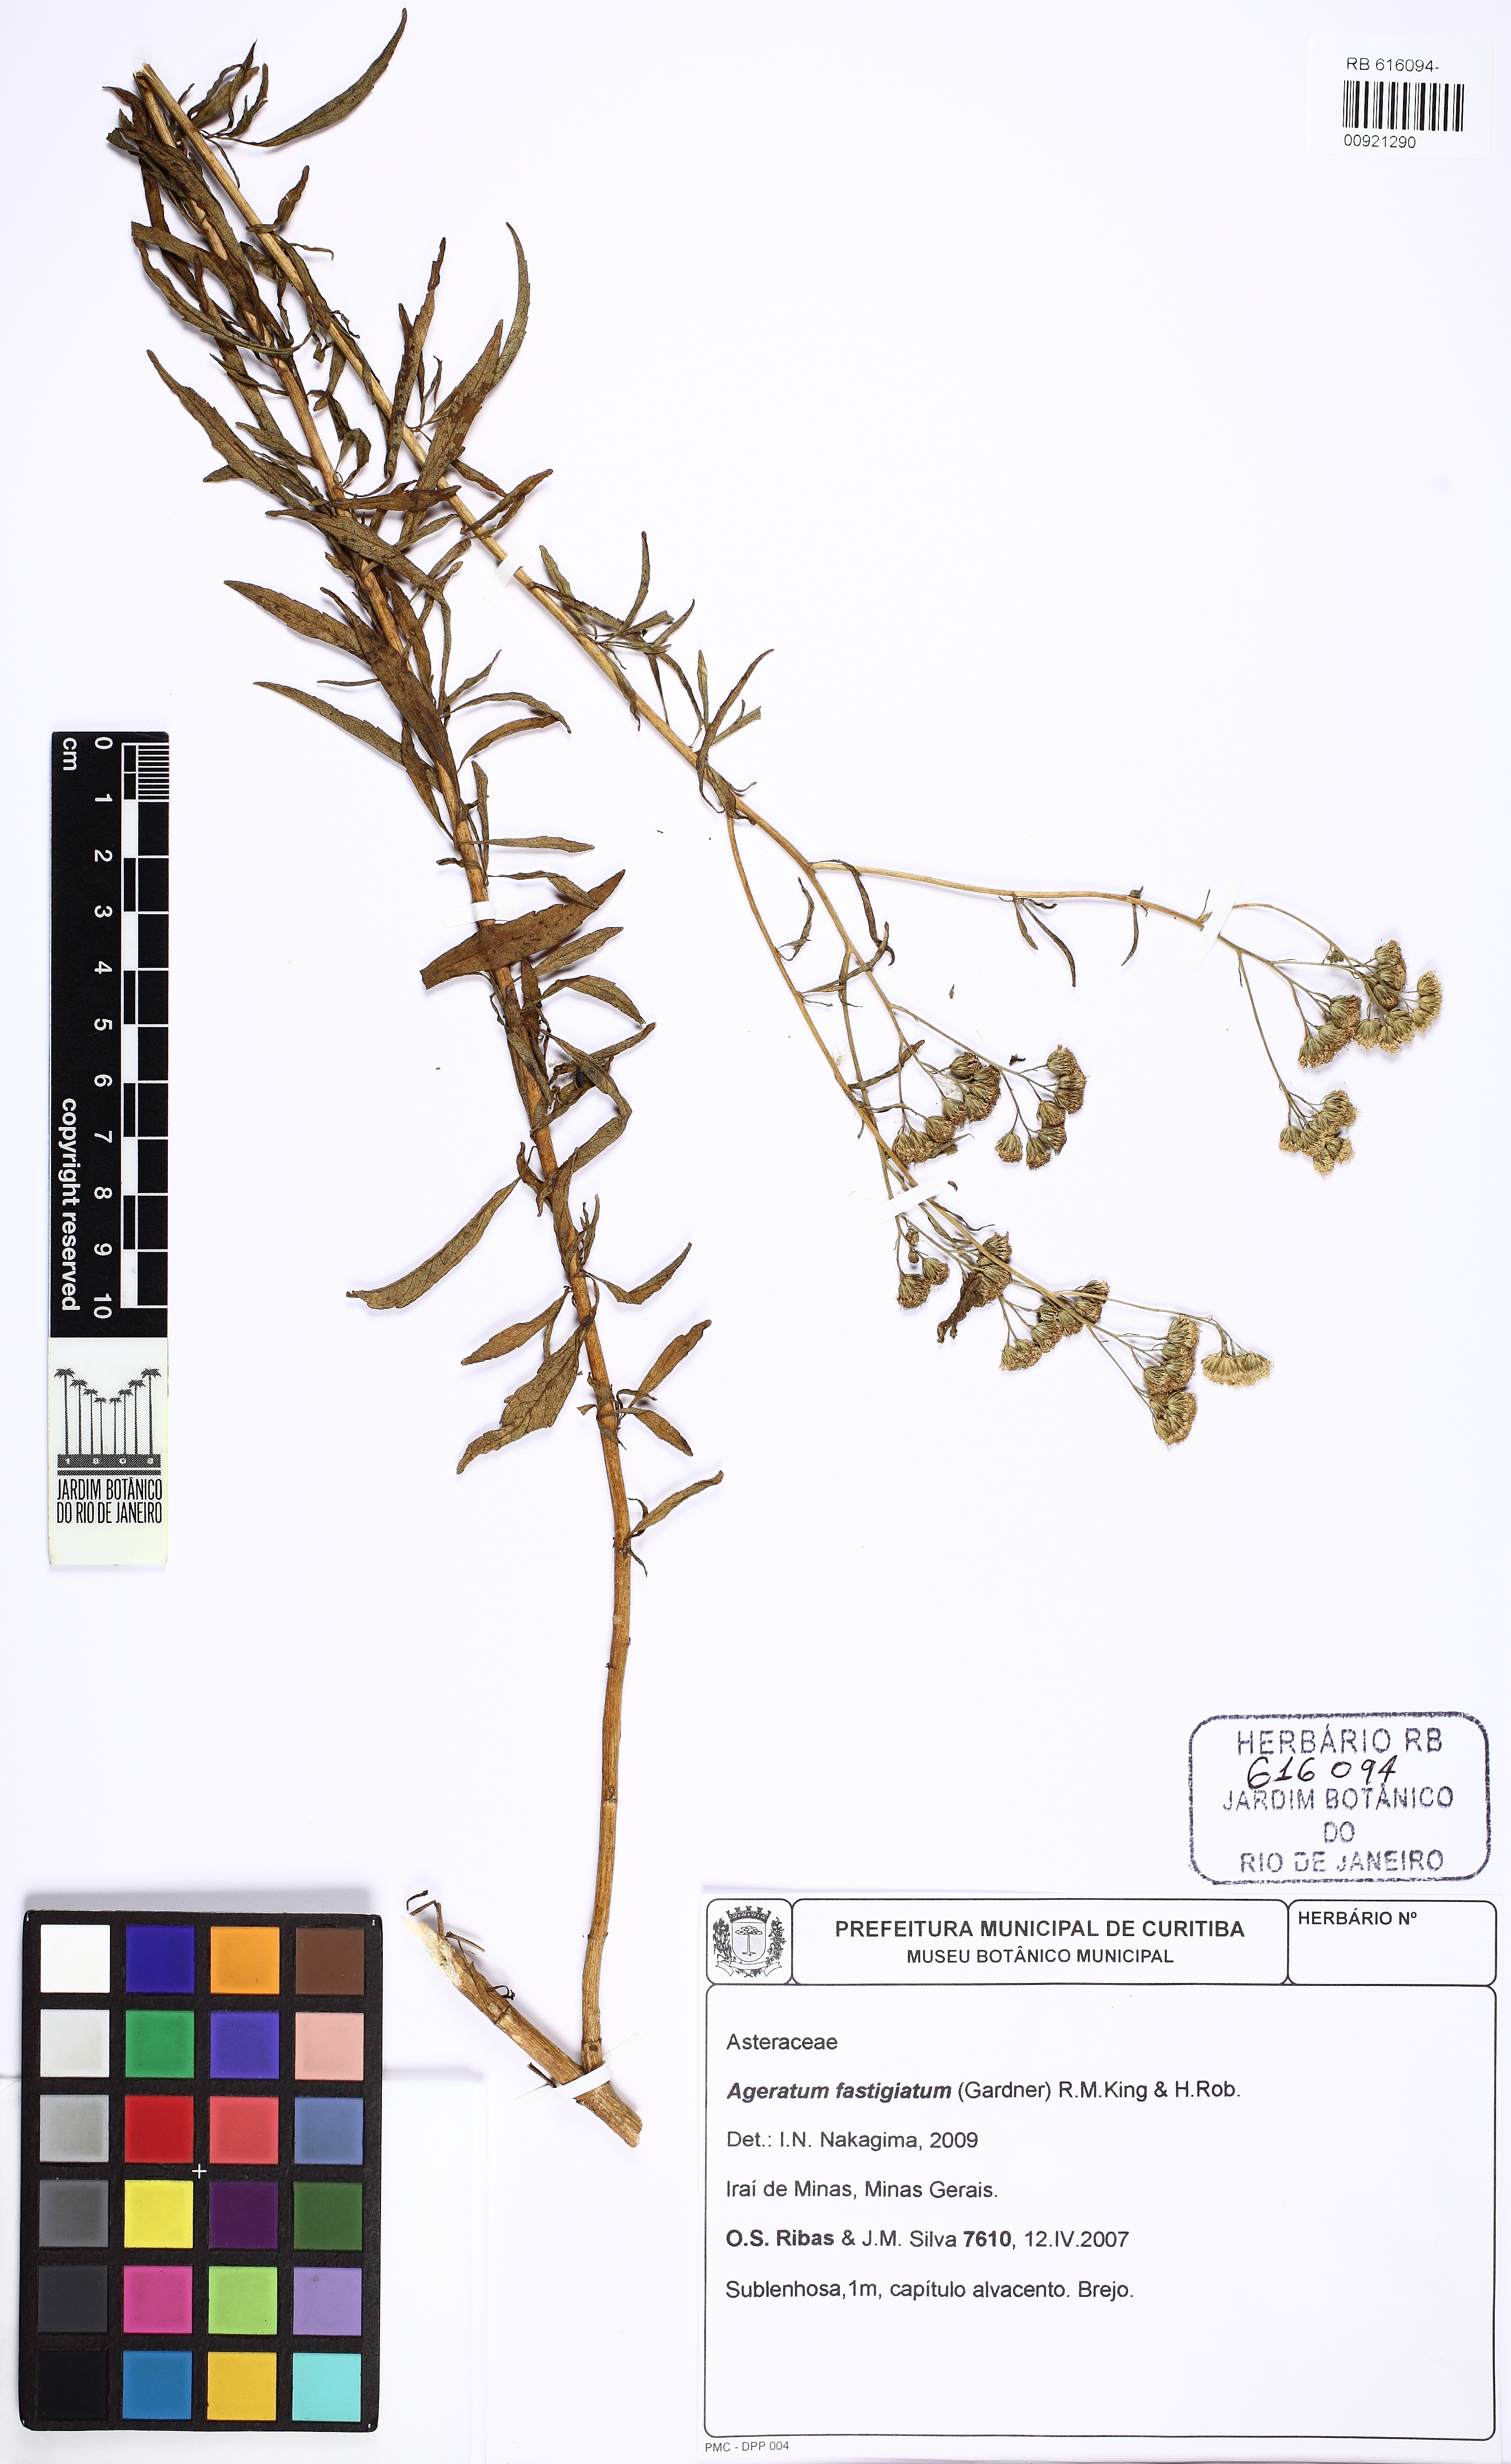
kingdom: Plantae
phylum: Tracheophyta
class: Magnoliopsida
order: Asterales
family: Asteraceae
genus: Ageratum
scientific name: Ageratum fastigiatum
